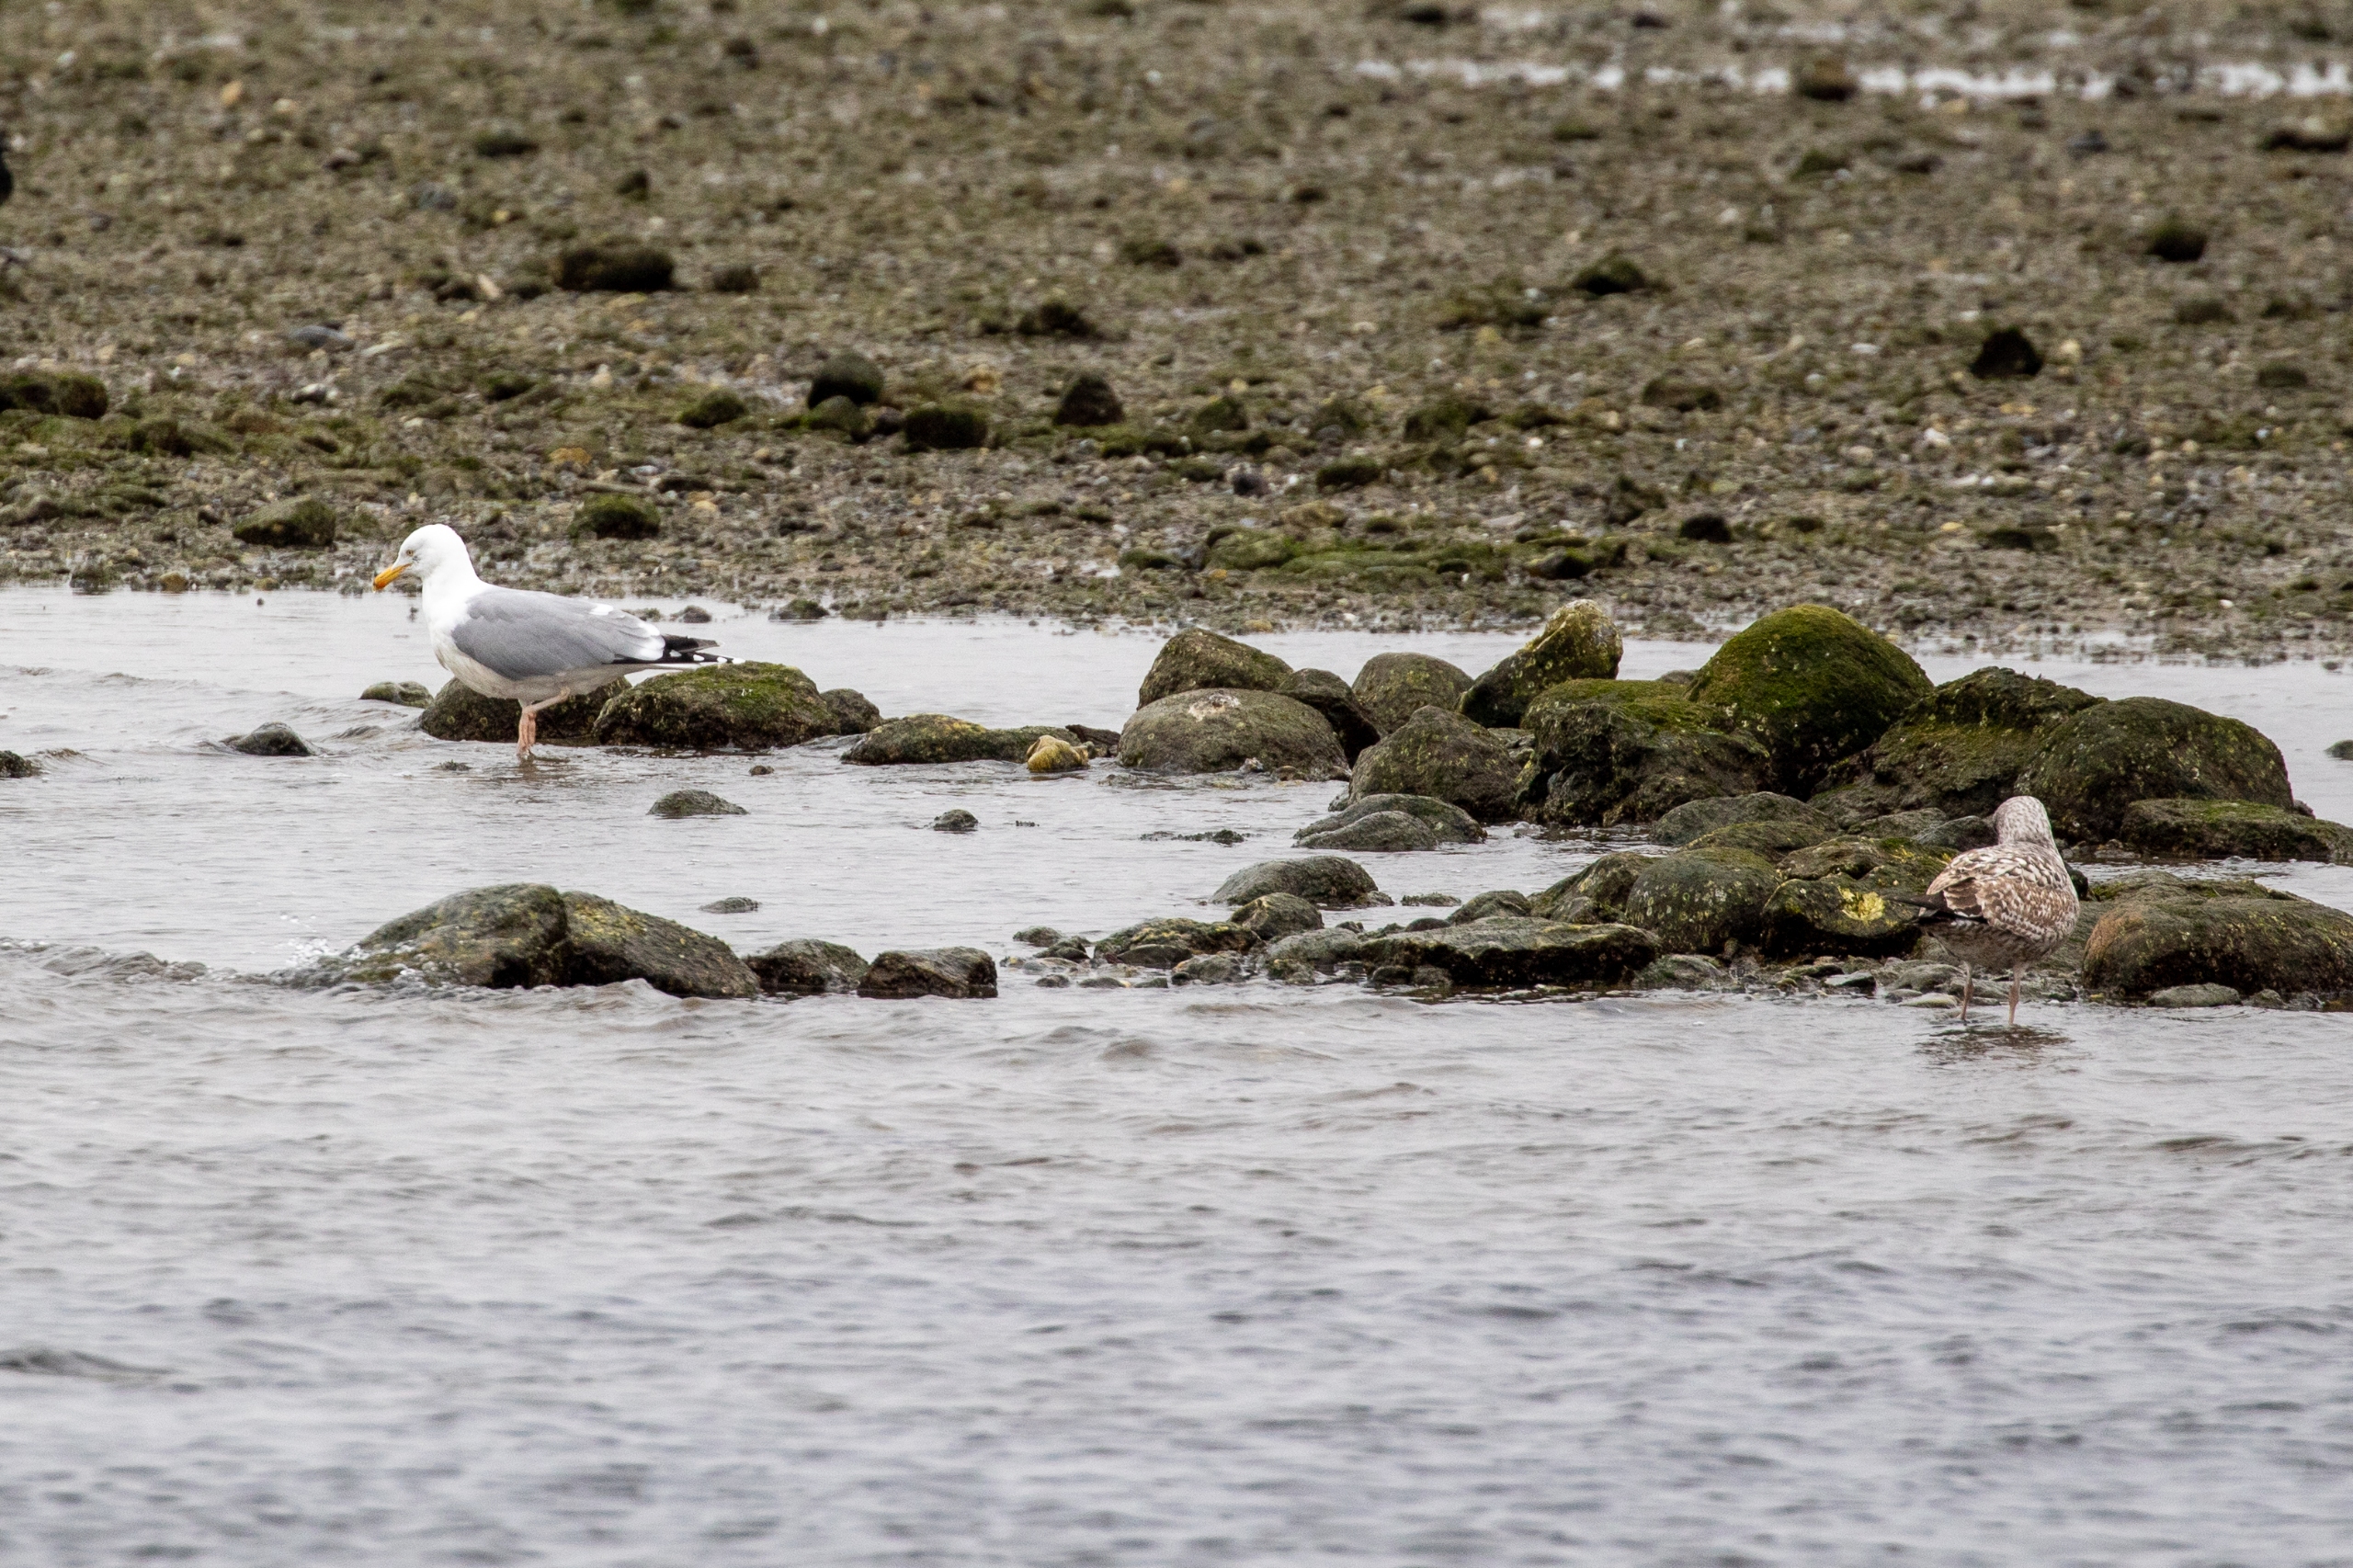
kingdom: Animalia
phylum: Chordata
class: Aves
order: Charadriiformes
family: Laridae
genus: Larus
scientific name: Larus argentatus
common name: Sølvmåge
